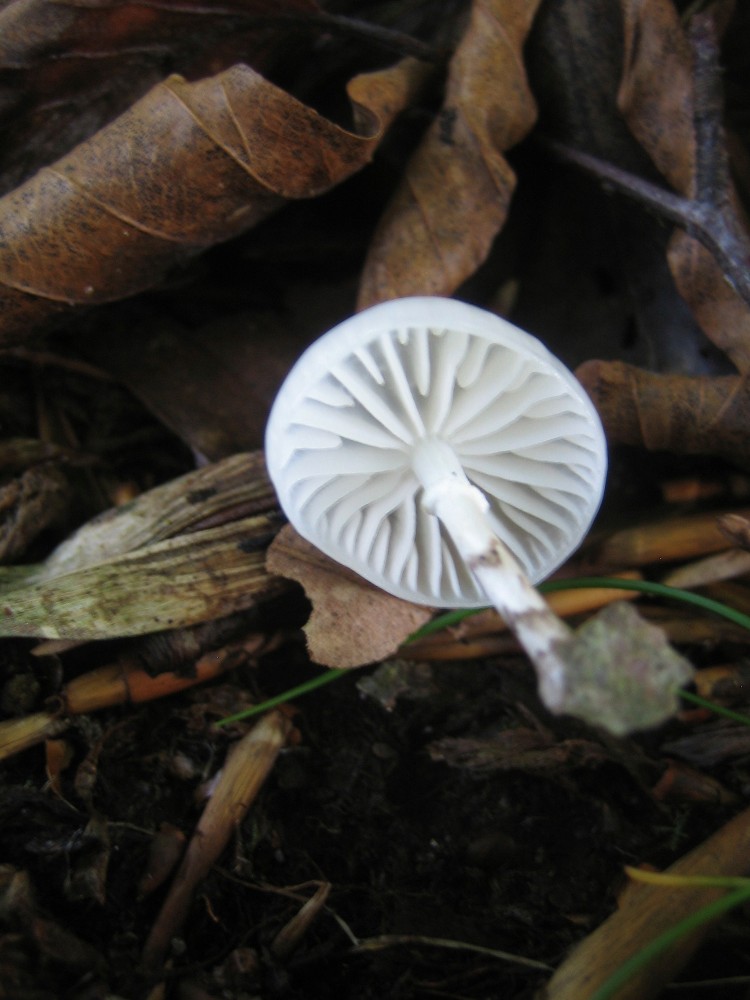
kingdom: Fungi
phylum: Basidiomycota
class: Agaricomycetes
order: Agaricales
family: Physalacriaceae
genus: Mucidula
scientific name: Mucidula mucida
